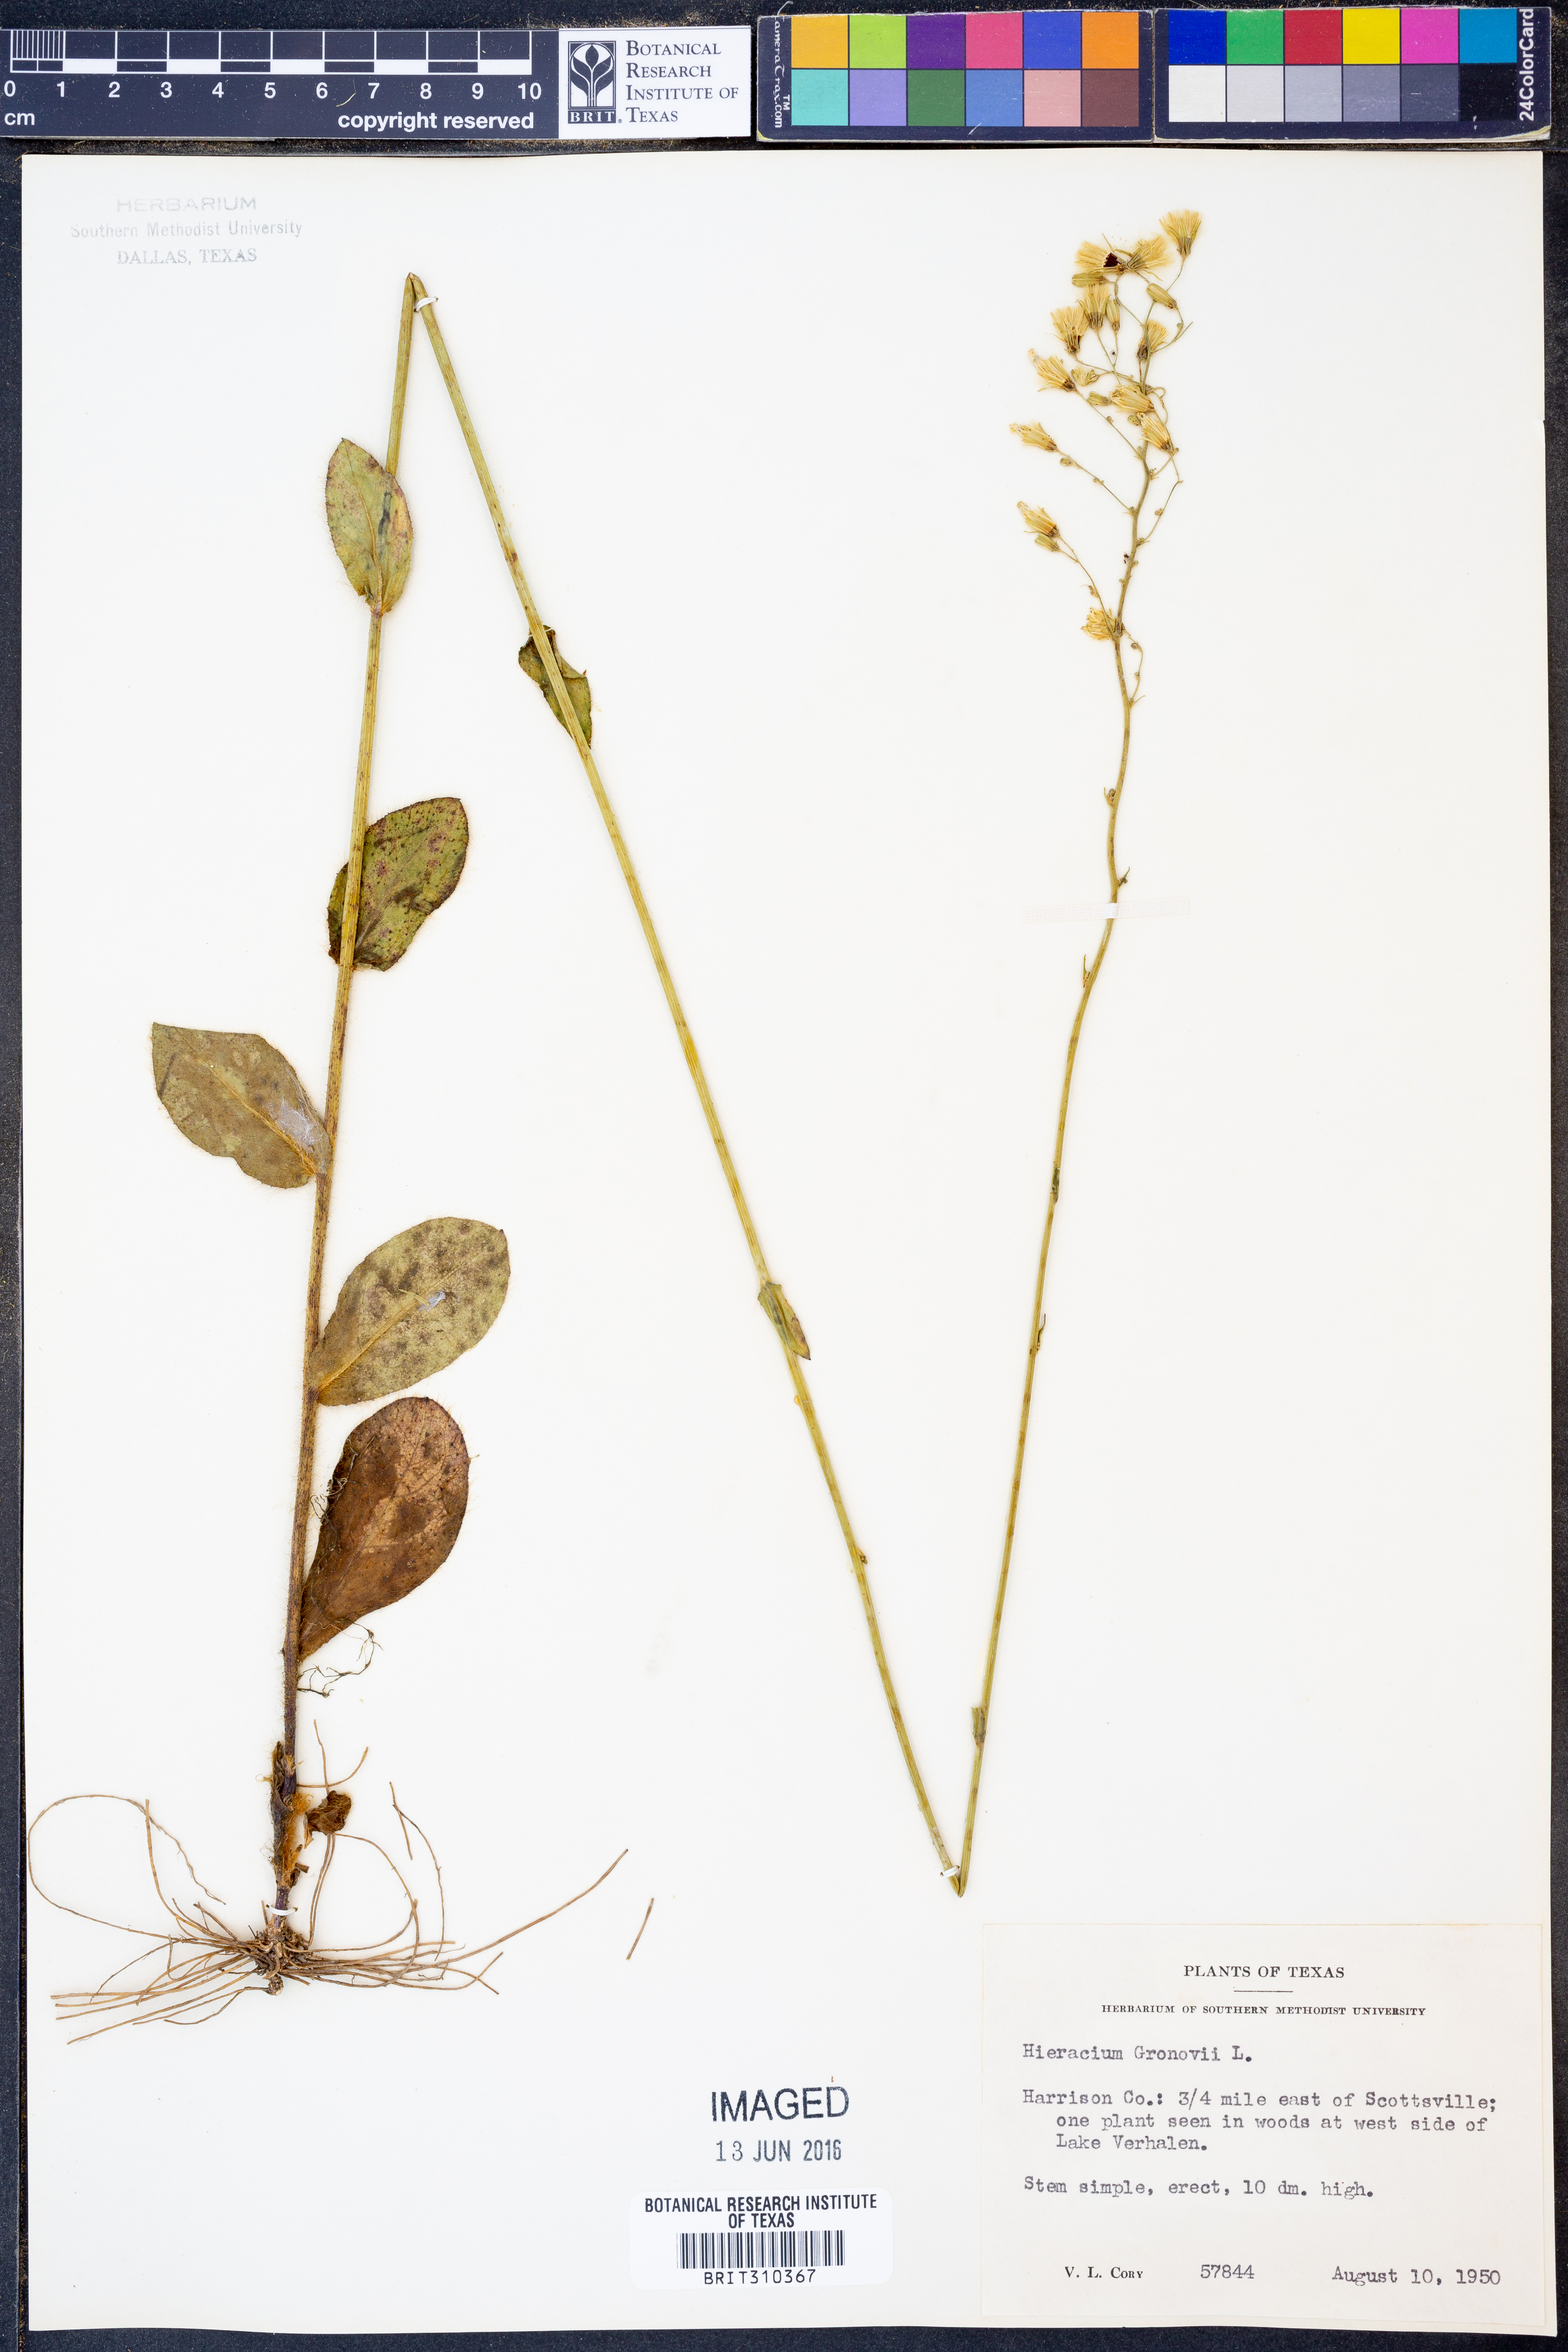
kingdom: Plantae
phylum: Tracheophyta
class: Magnoliopsida
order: Asterales
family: Asteraceae
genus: Hieracium
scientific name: Hieracium gronovii
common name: Beaked hawkweed
